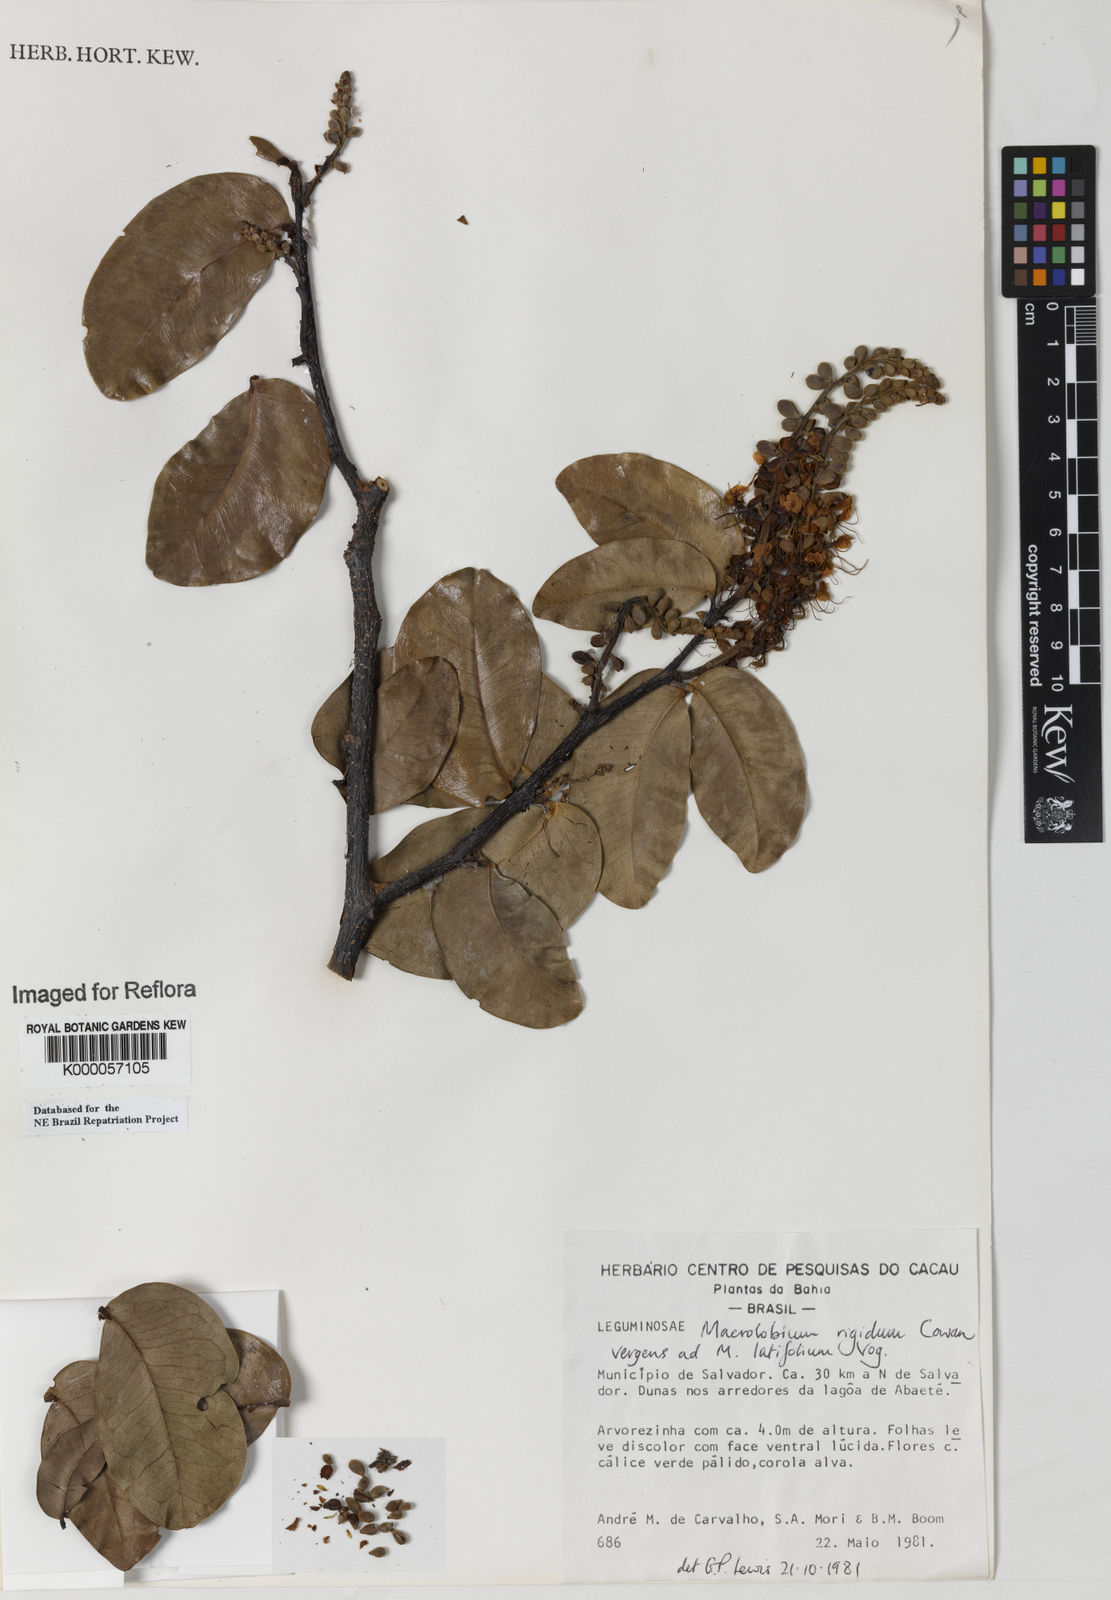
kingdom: Plantae
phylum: Tracheophyta
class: Magnoliopsida
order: Fabales
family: Fabaceae
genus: Macrolobium
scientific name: Macrolobium rigidum
